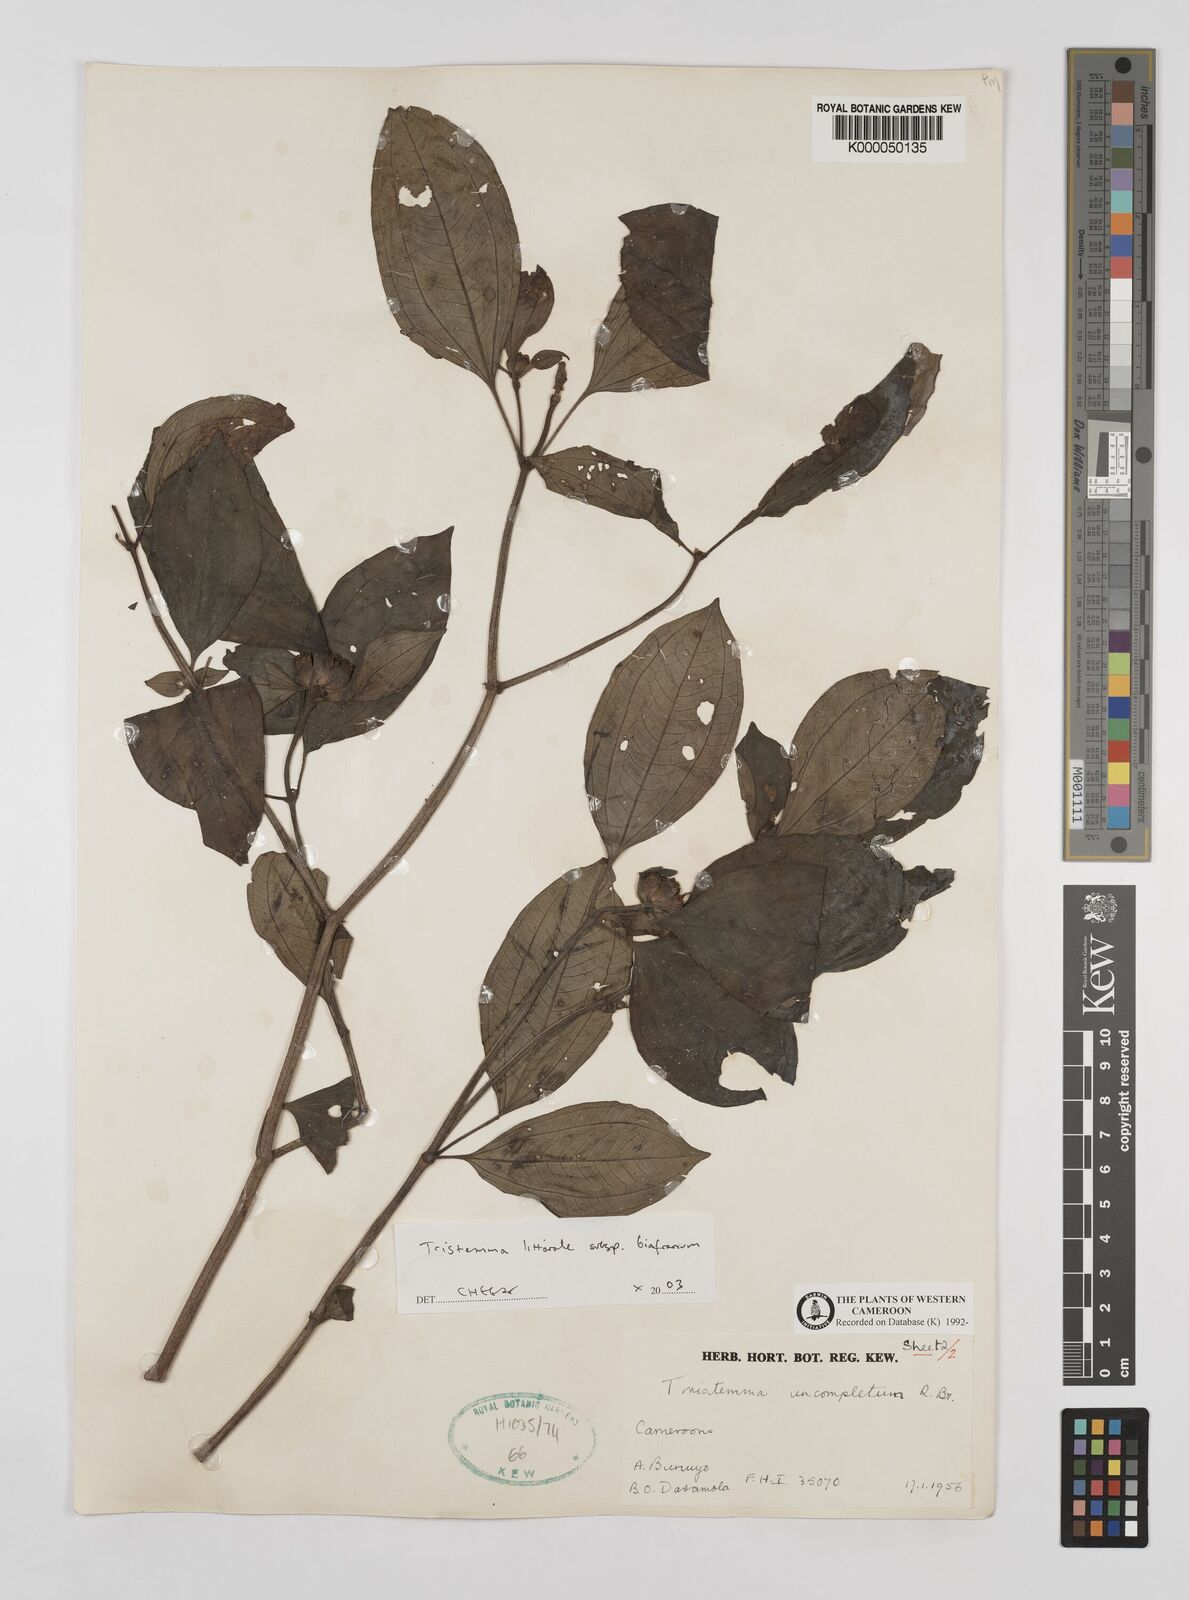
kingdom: Plantae
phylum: Tracheophyta
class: Magnoliopsida
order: Myrtales
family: Melastomataceae
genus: Tristemma
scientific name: Tristemma littorale
